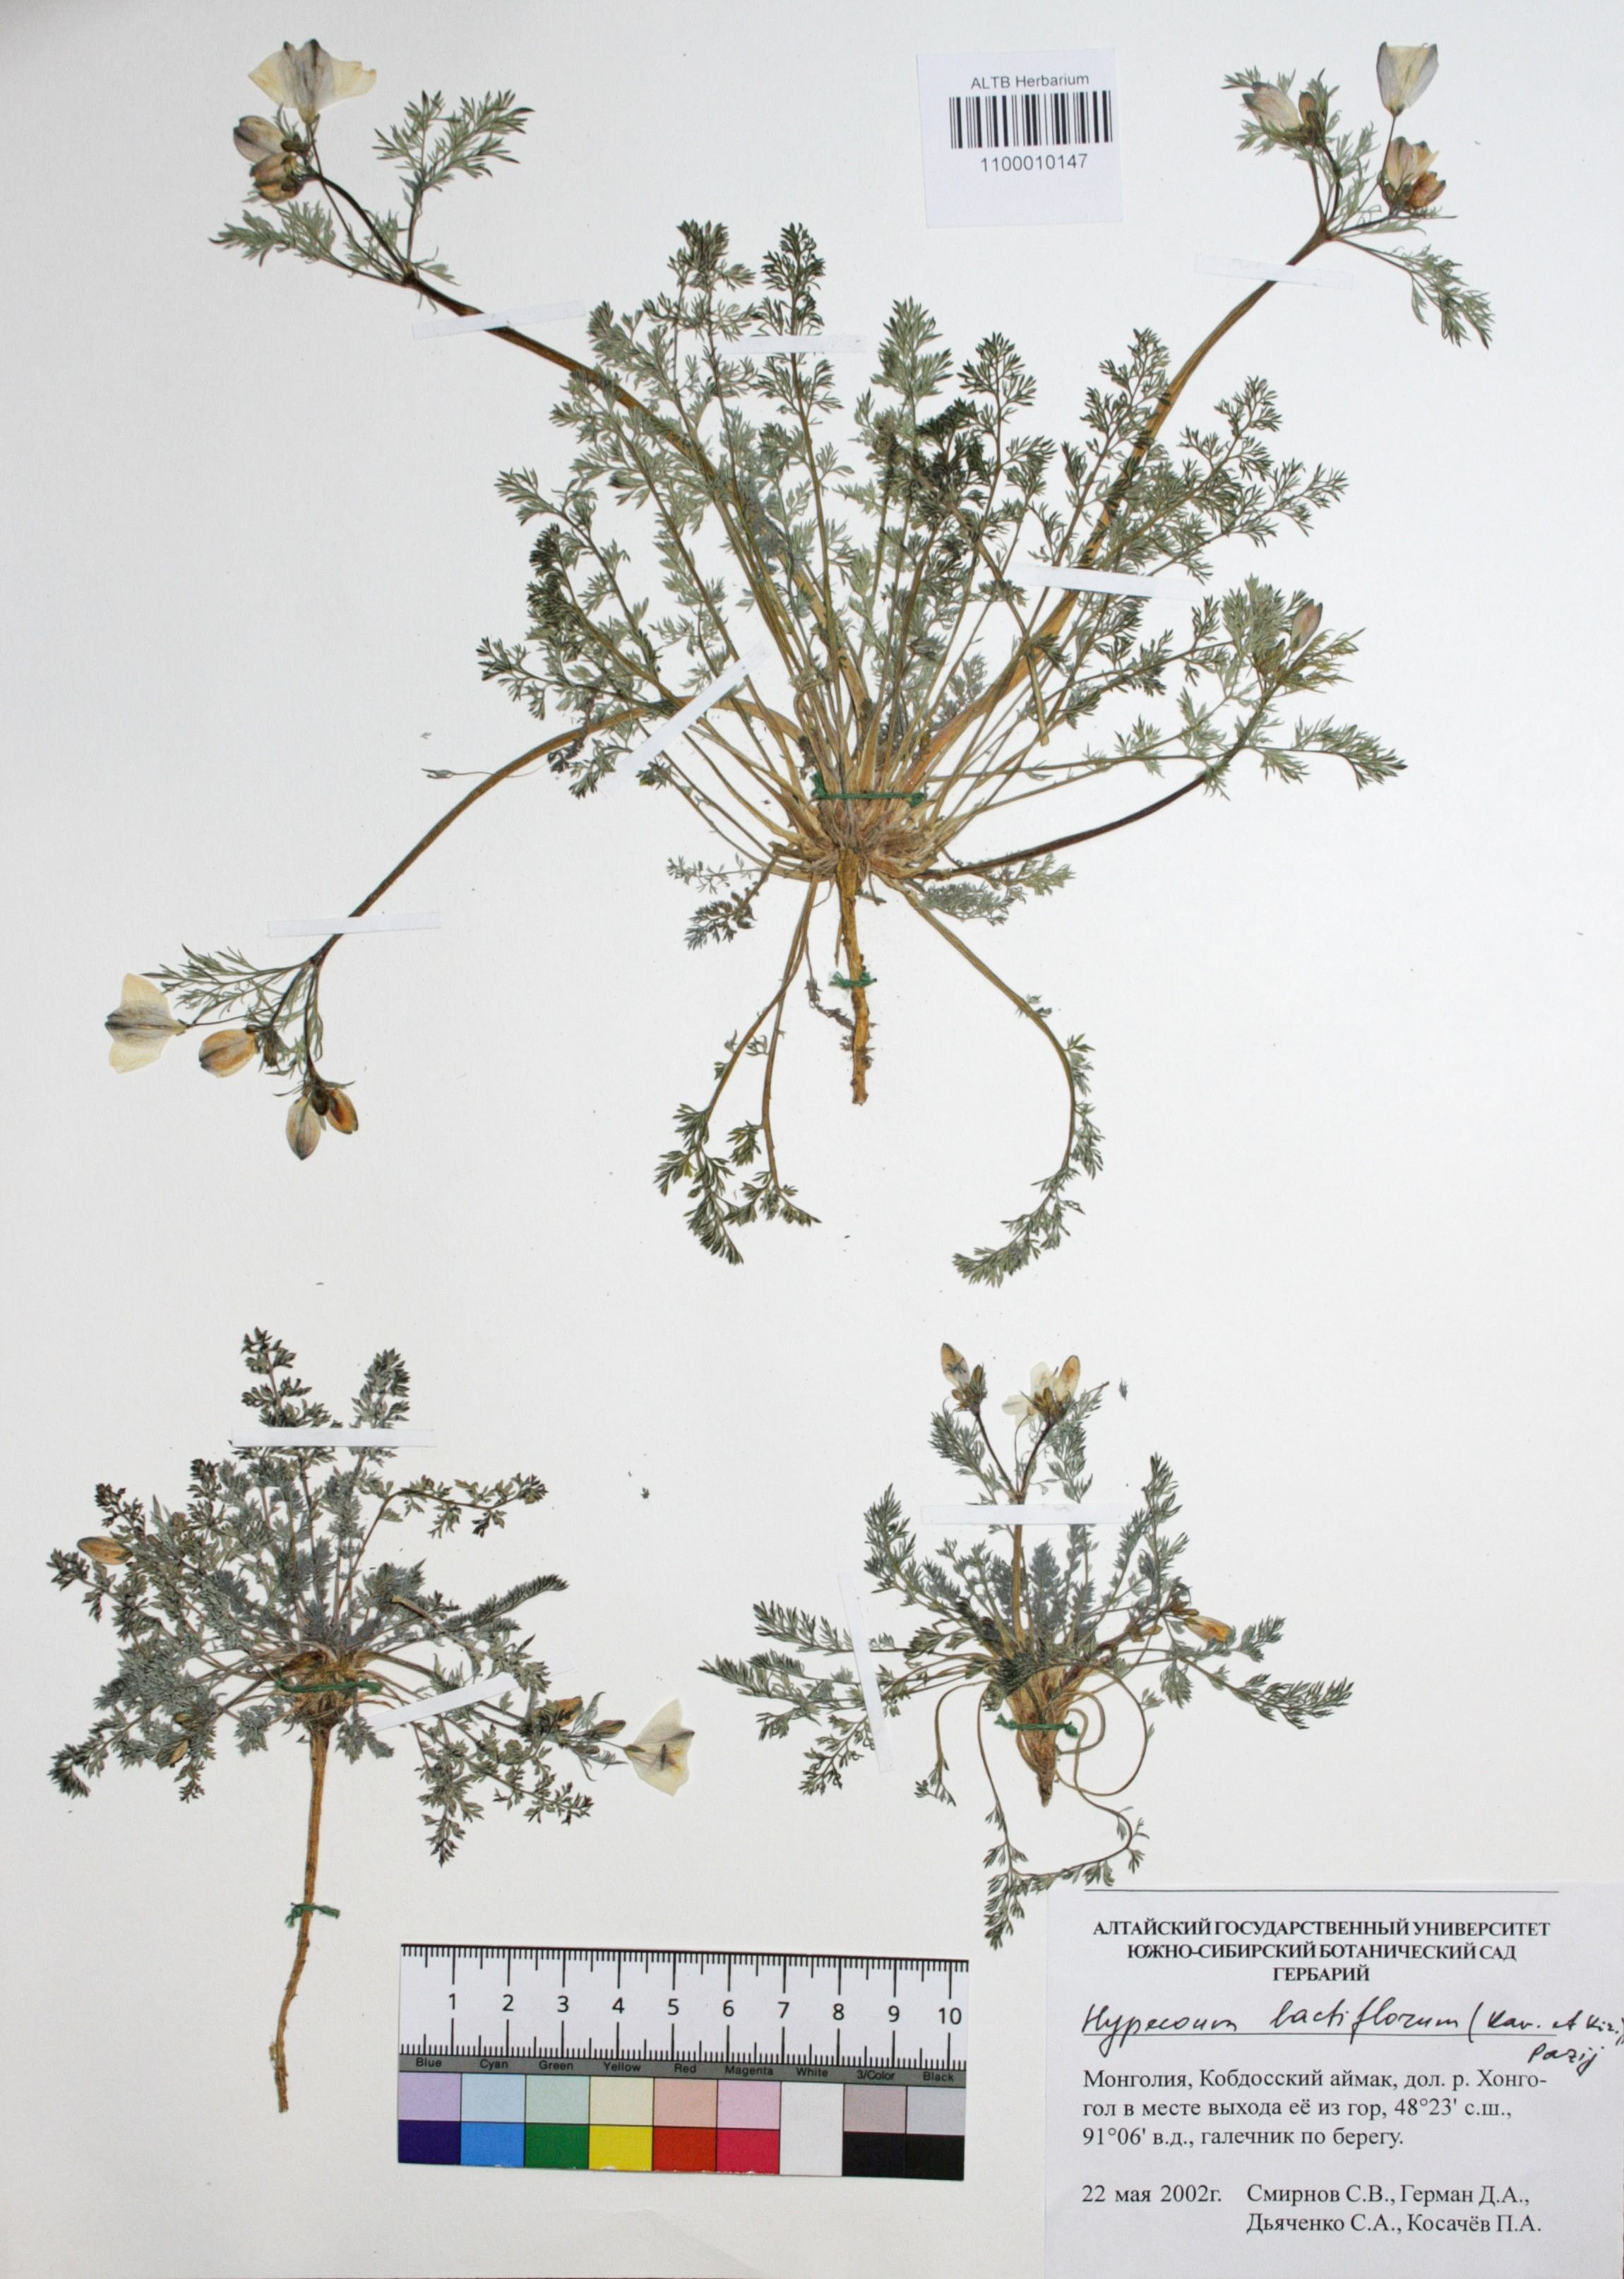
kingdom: Plantae
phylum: Tracheophyta
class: Magnoliopsida
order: Ranunculales
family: Papaveraceae
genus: Hypecoum
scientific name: Hypecoum lactiflorum
